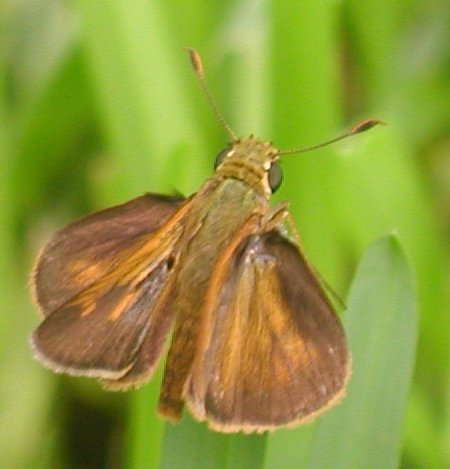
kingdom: Animalia
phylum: Arthropoda
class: Insecta
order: Lepidoptera
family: Hesperiidae
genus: Polites
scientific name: Polites baracoa
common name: Baracoa Skipper
